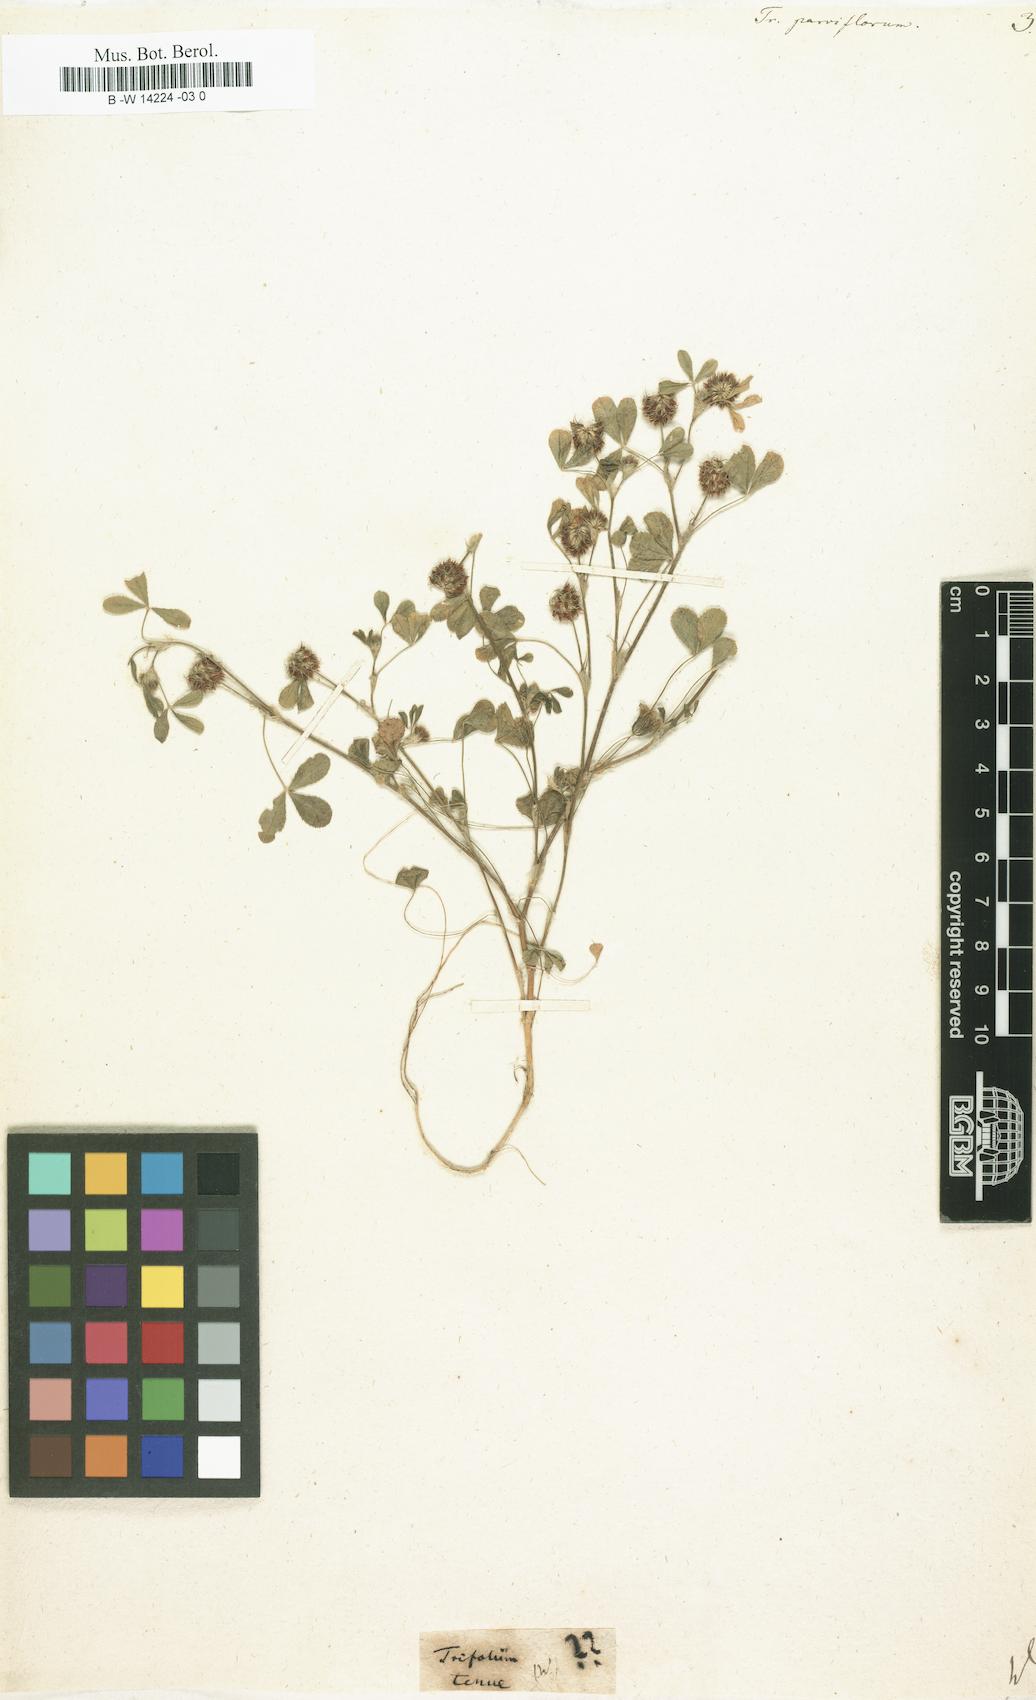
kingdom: Plantae
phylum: Tracheophyta
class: Magnoliopsida
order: Fabales
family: Fabaceae
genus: Trifolium
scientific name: Trifolium retusum
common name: Teasel clover
